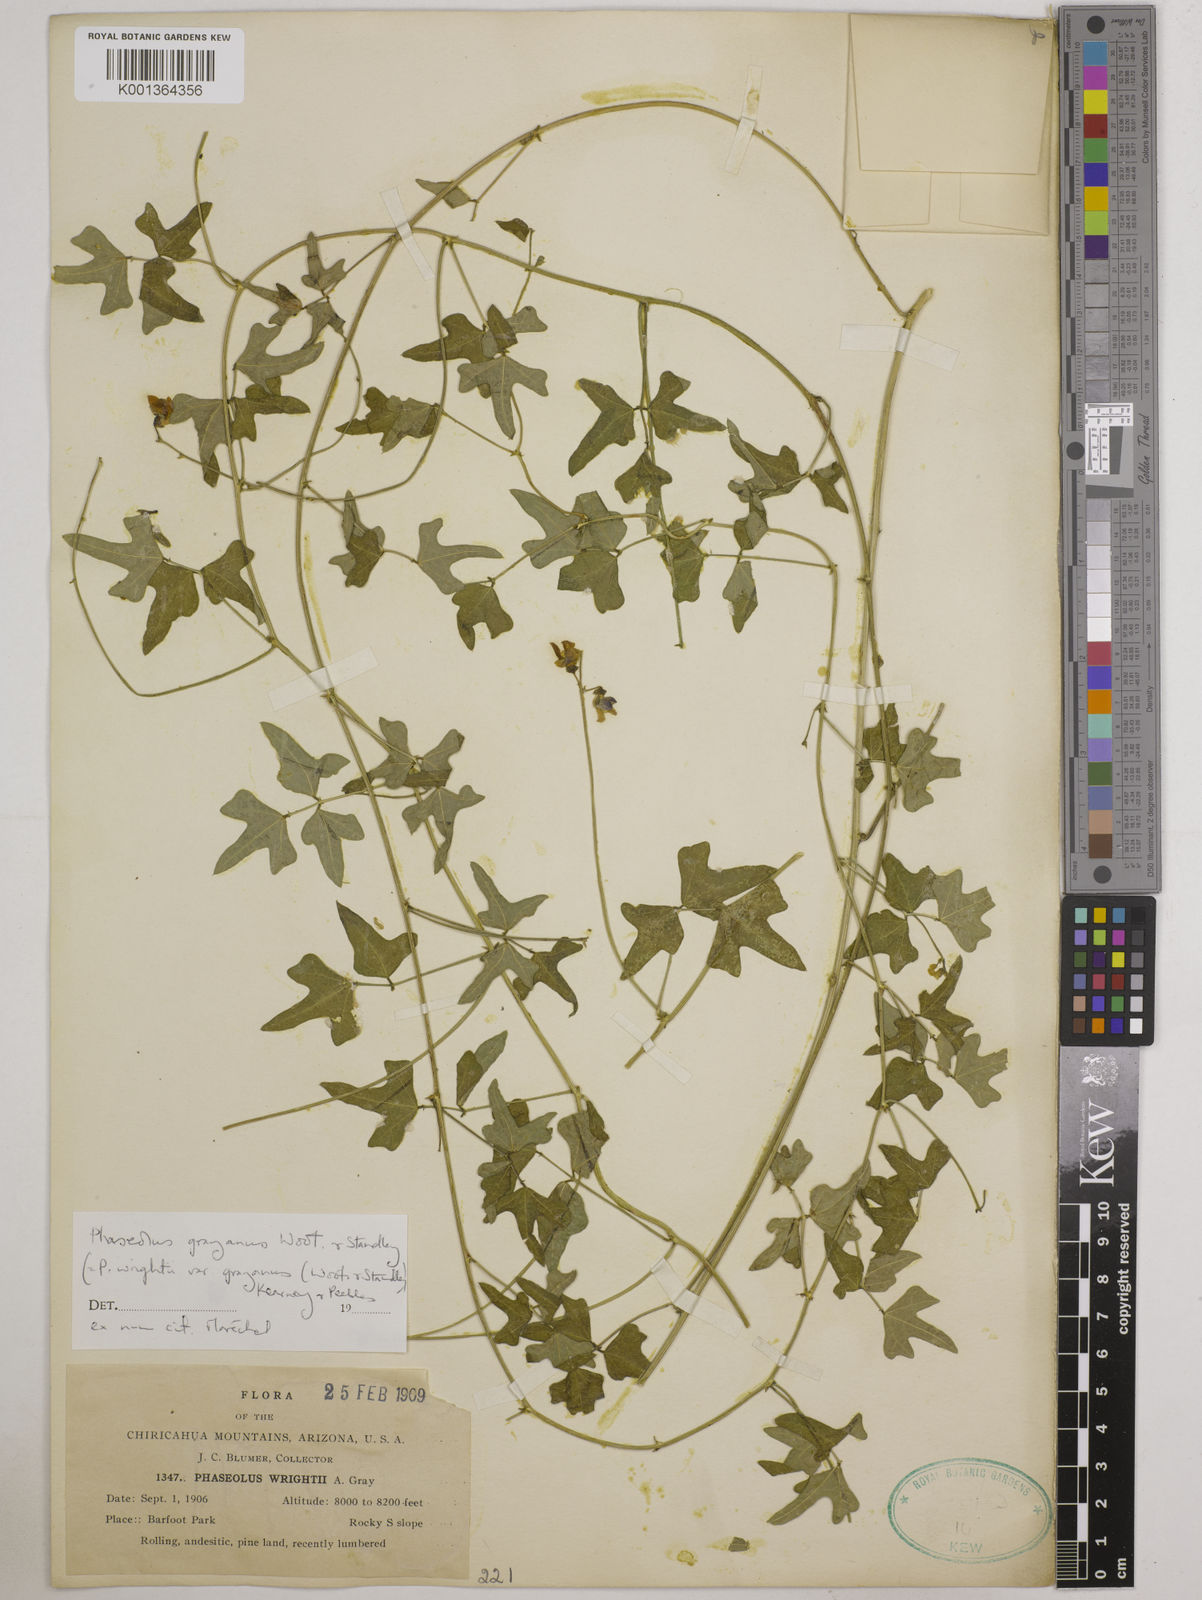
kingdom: Plantae
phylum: Tracheophyta
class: Magnoliopsida
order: Fabales
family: Fabaceae
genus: Phaseolus
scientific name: Phaseolus pedicellatus
